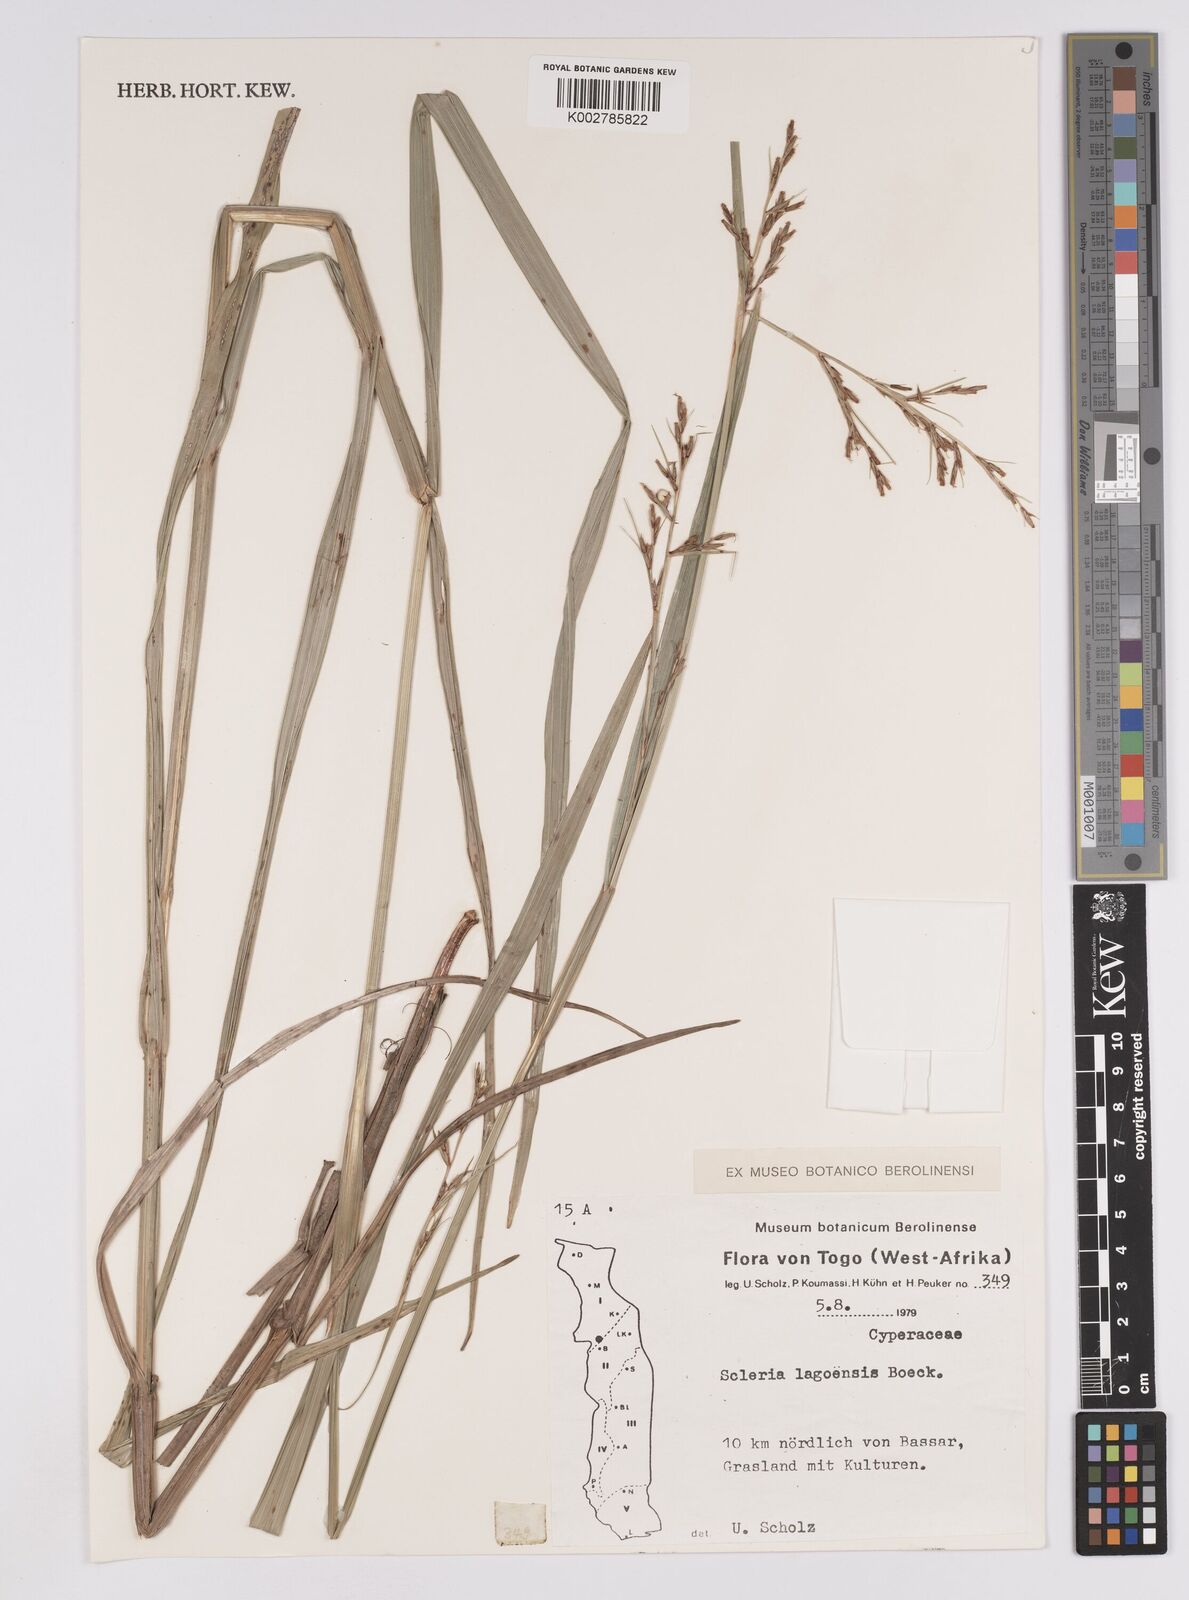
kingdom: Plantae
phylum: Tracheophyta
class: Liliopsida
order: Poales
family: Cyperaceae
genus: Scleria
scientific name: Scleria lagoensis
